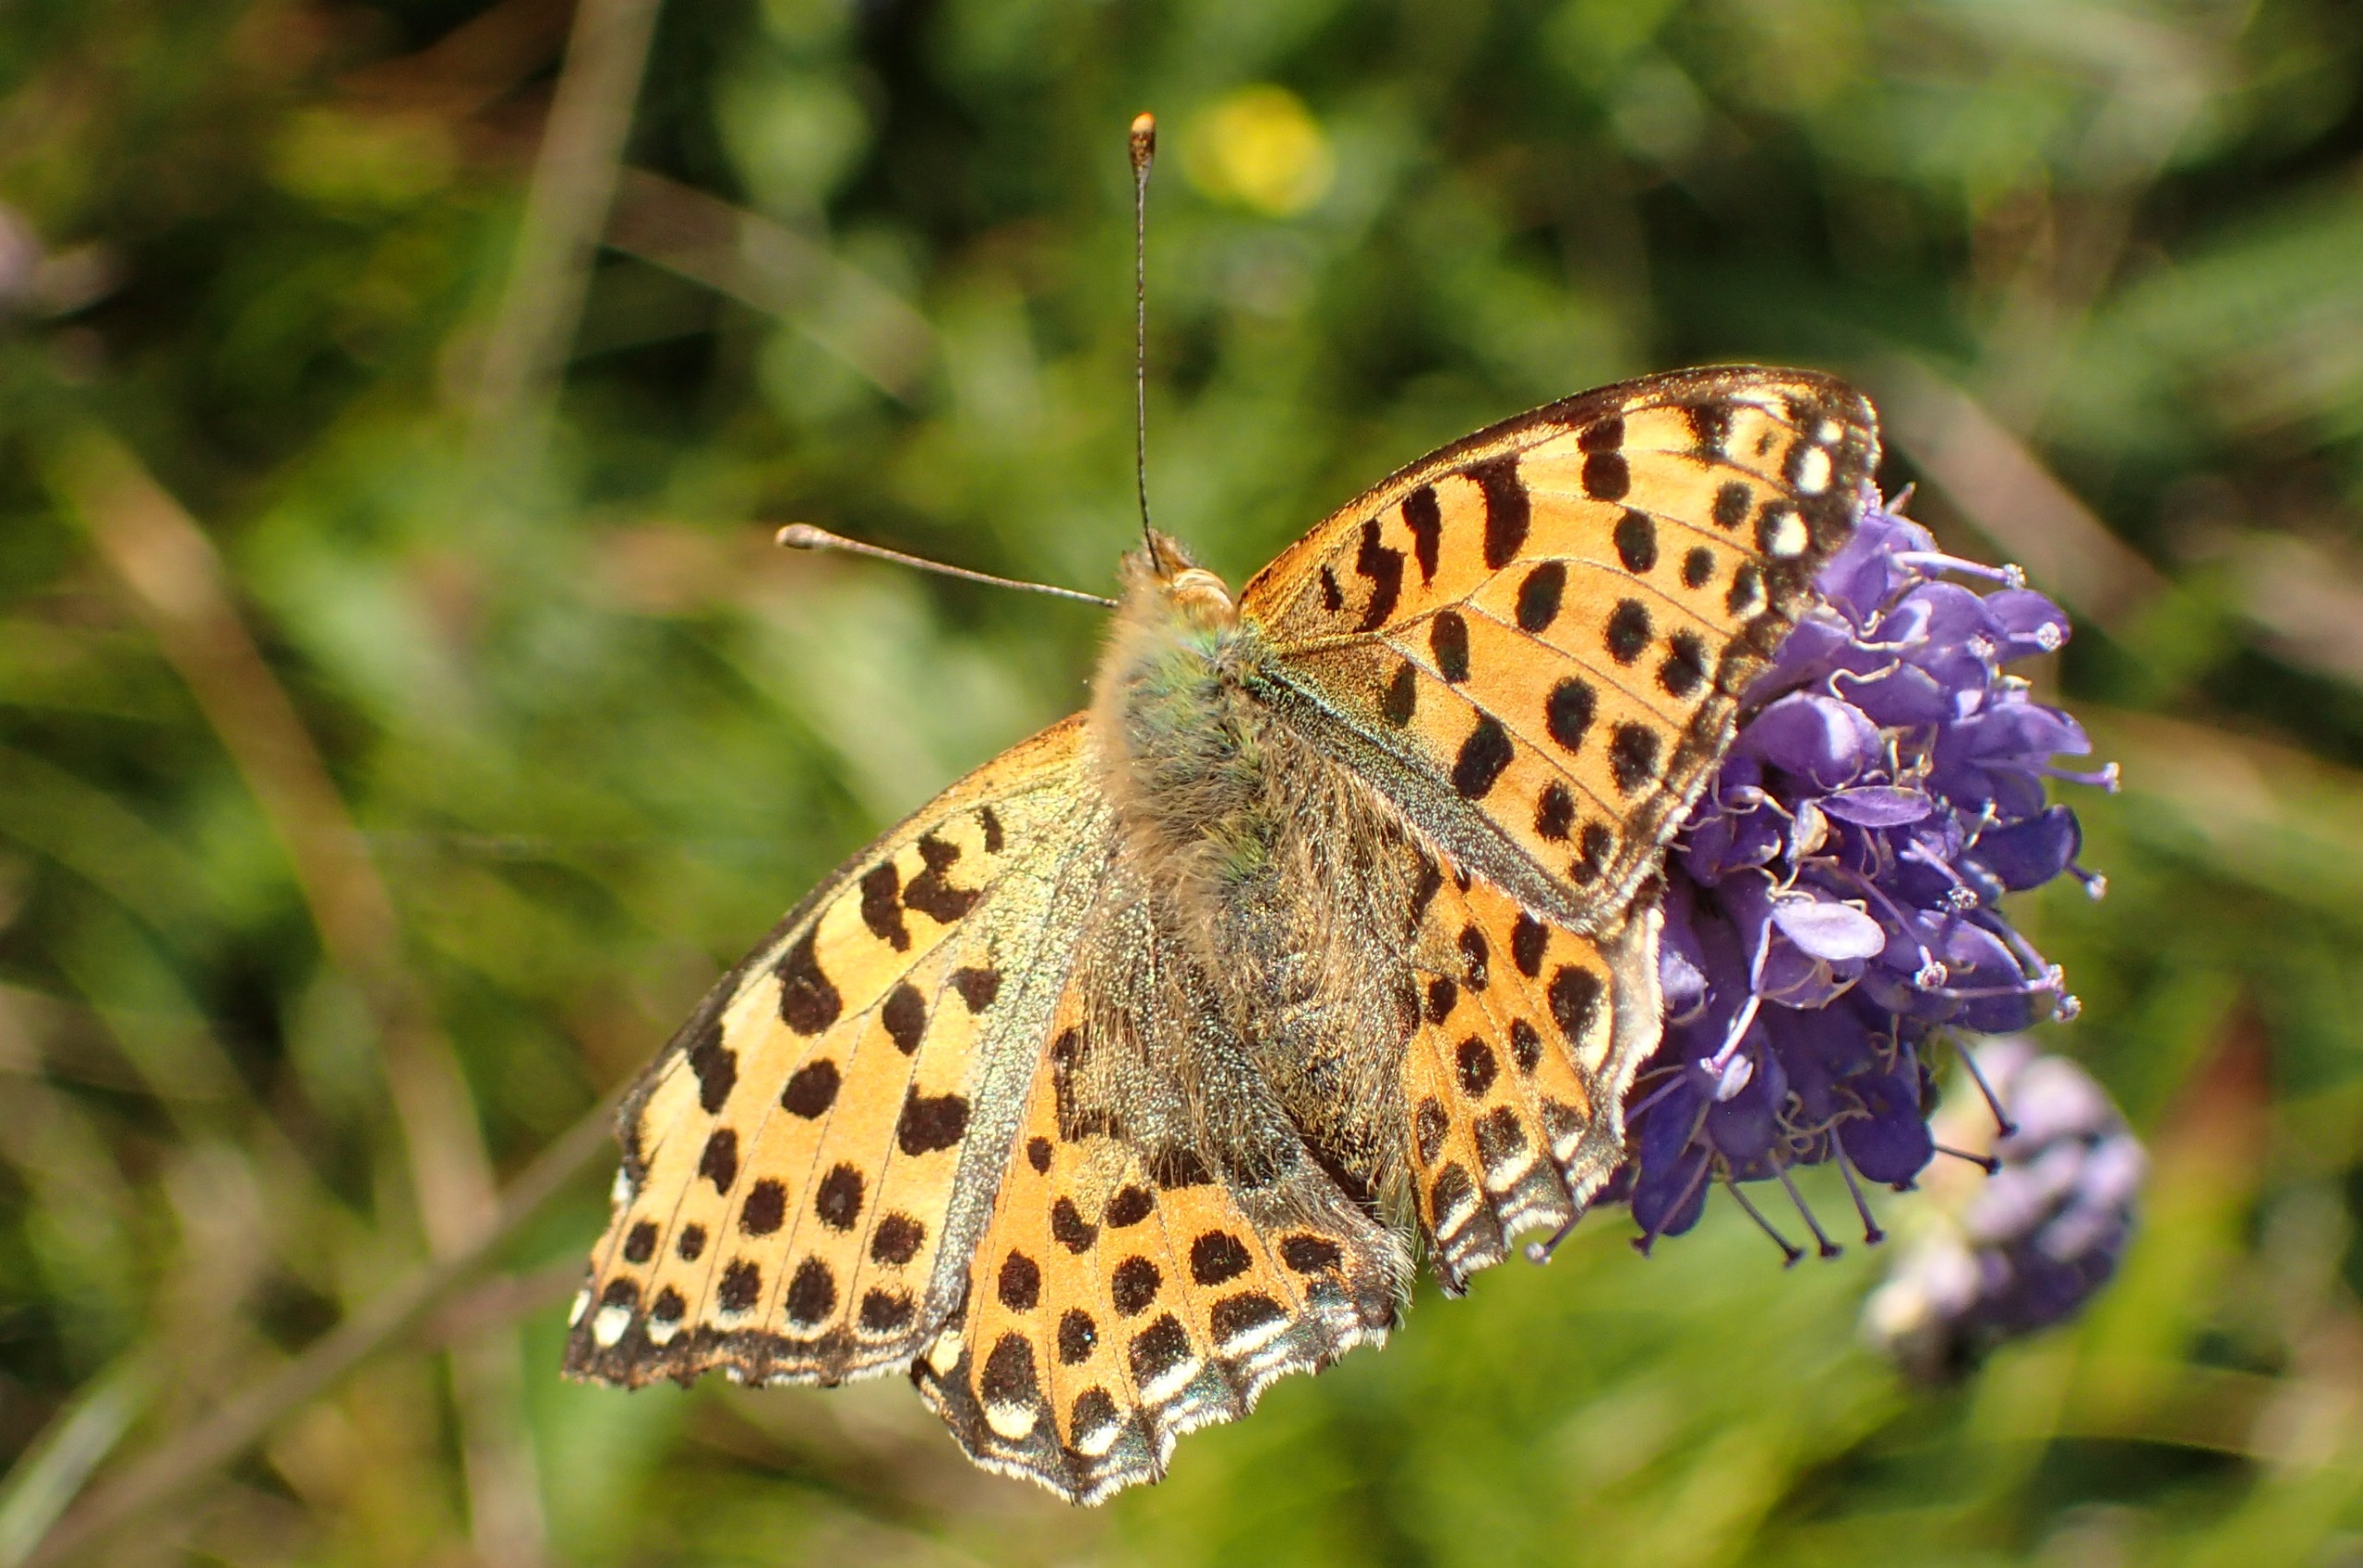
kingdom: Animalia
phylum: Arthropoda
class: Insecta
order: Lepidoptera
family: Nymphalidae
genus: Issoria
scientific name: Issoria lathonia
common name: Storplettet perlemorsommerfugl
